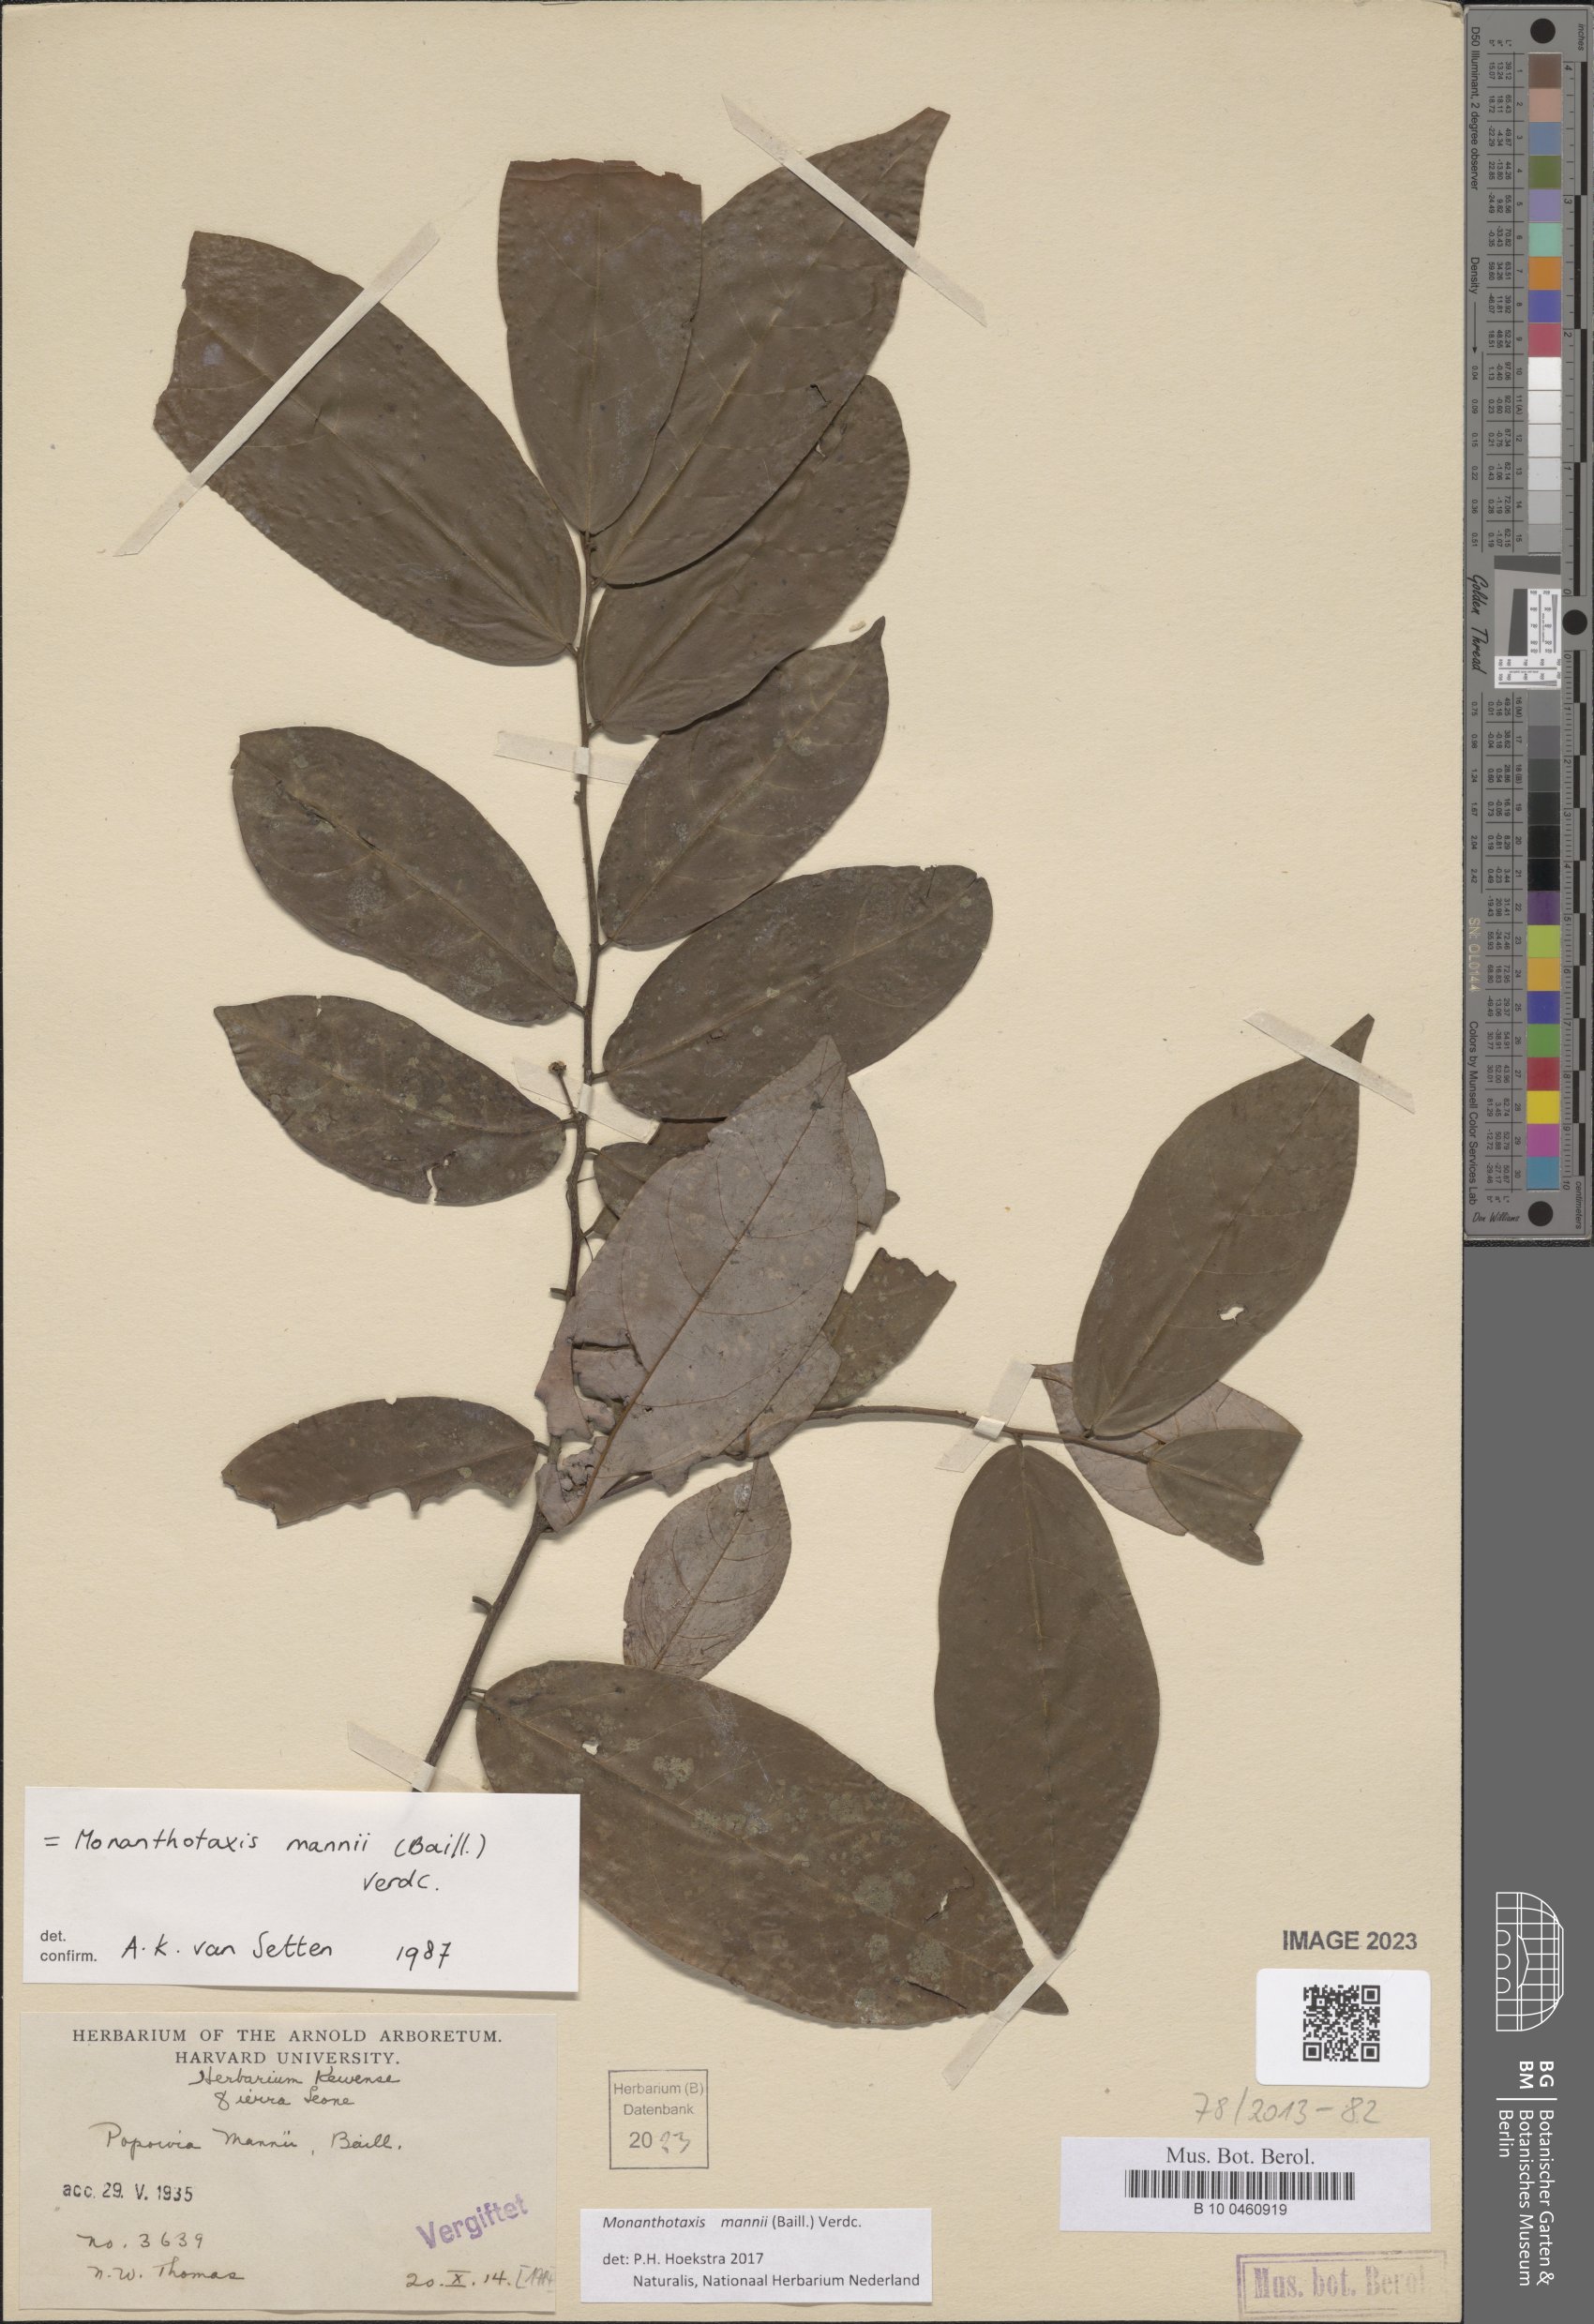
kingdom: Plantae
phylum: Tracheophyta
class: Magnoliopsida
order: Magnoliales
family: Annonaceae
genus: Monanthotaxis
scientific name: Monanthotaxis mannii
